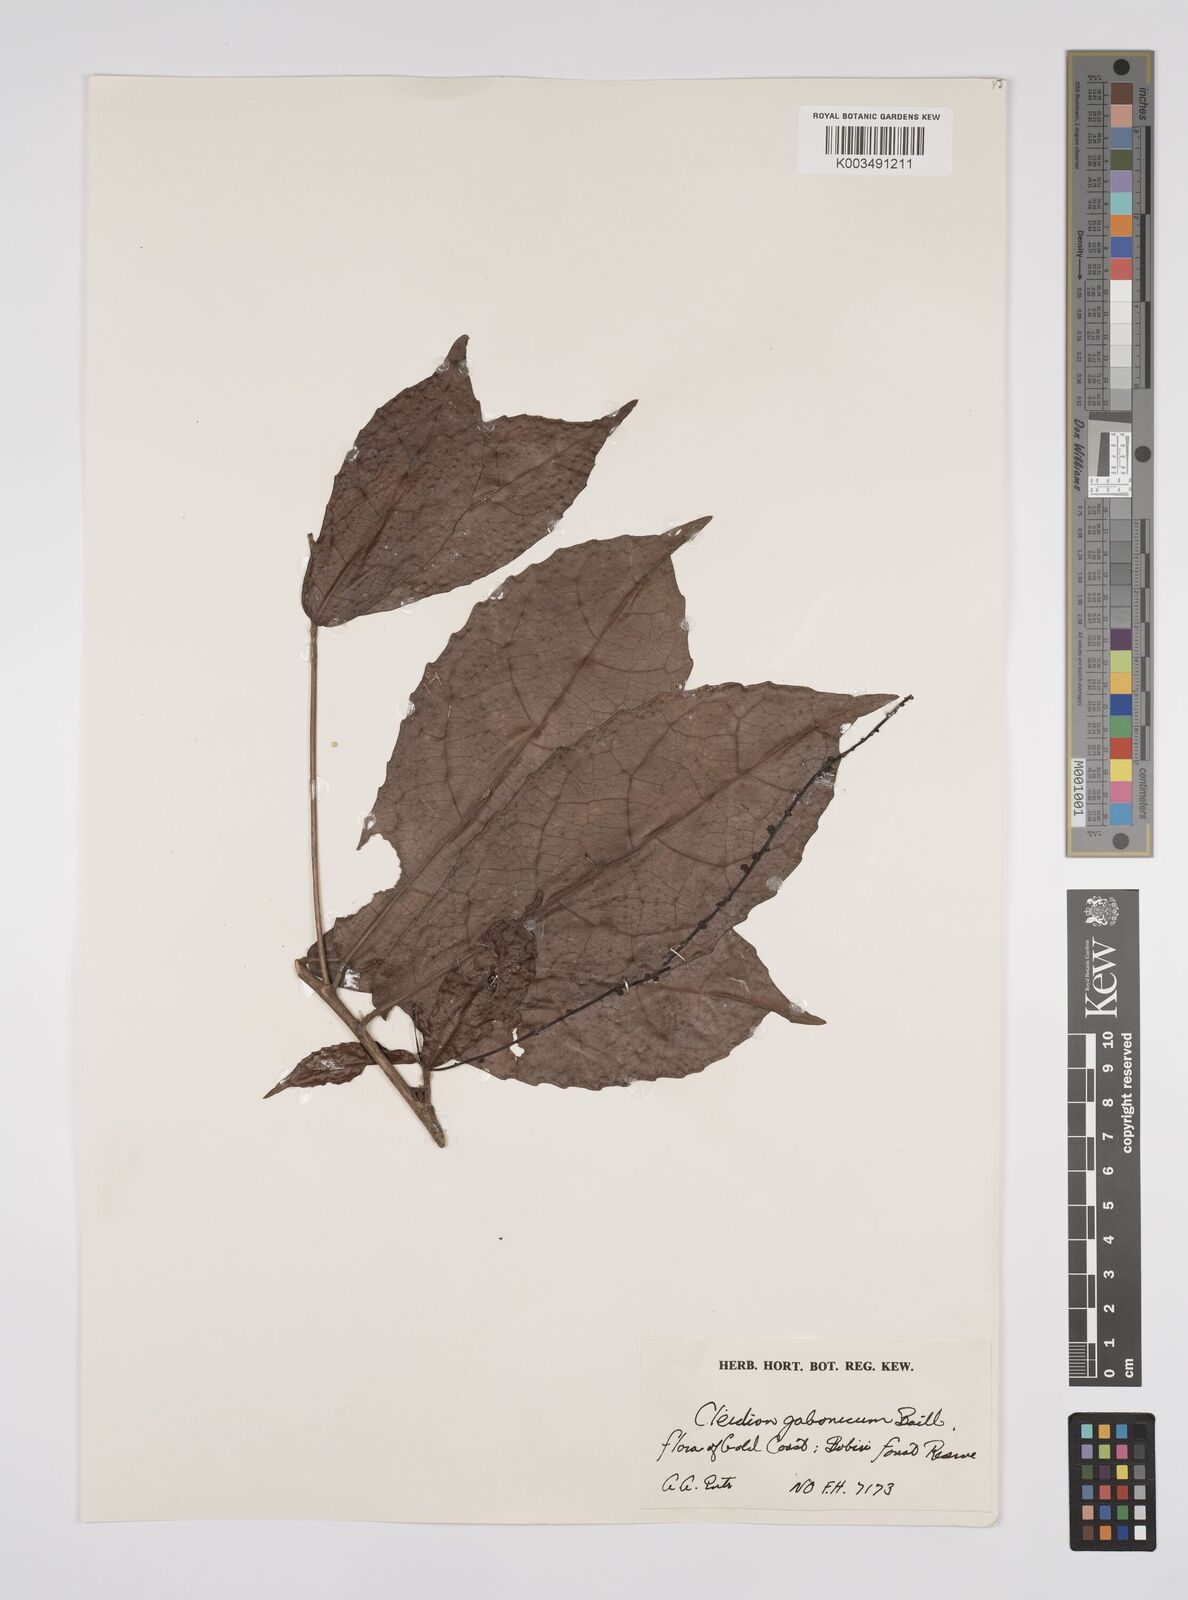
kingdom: Plantae
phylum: Tracheophyta
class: Magnoliopsida
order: Malpighiales
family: Euphorbiaceae
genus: Cleidion
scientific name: Cleidion gabonicum
